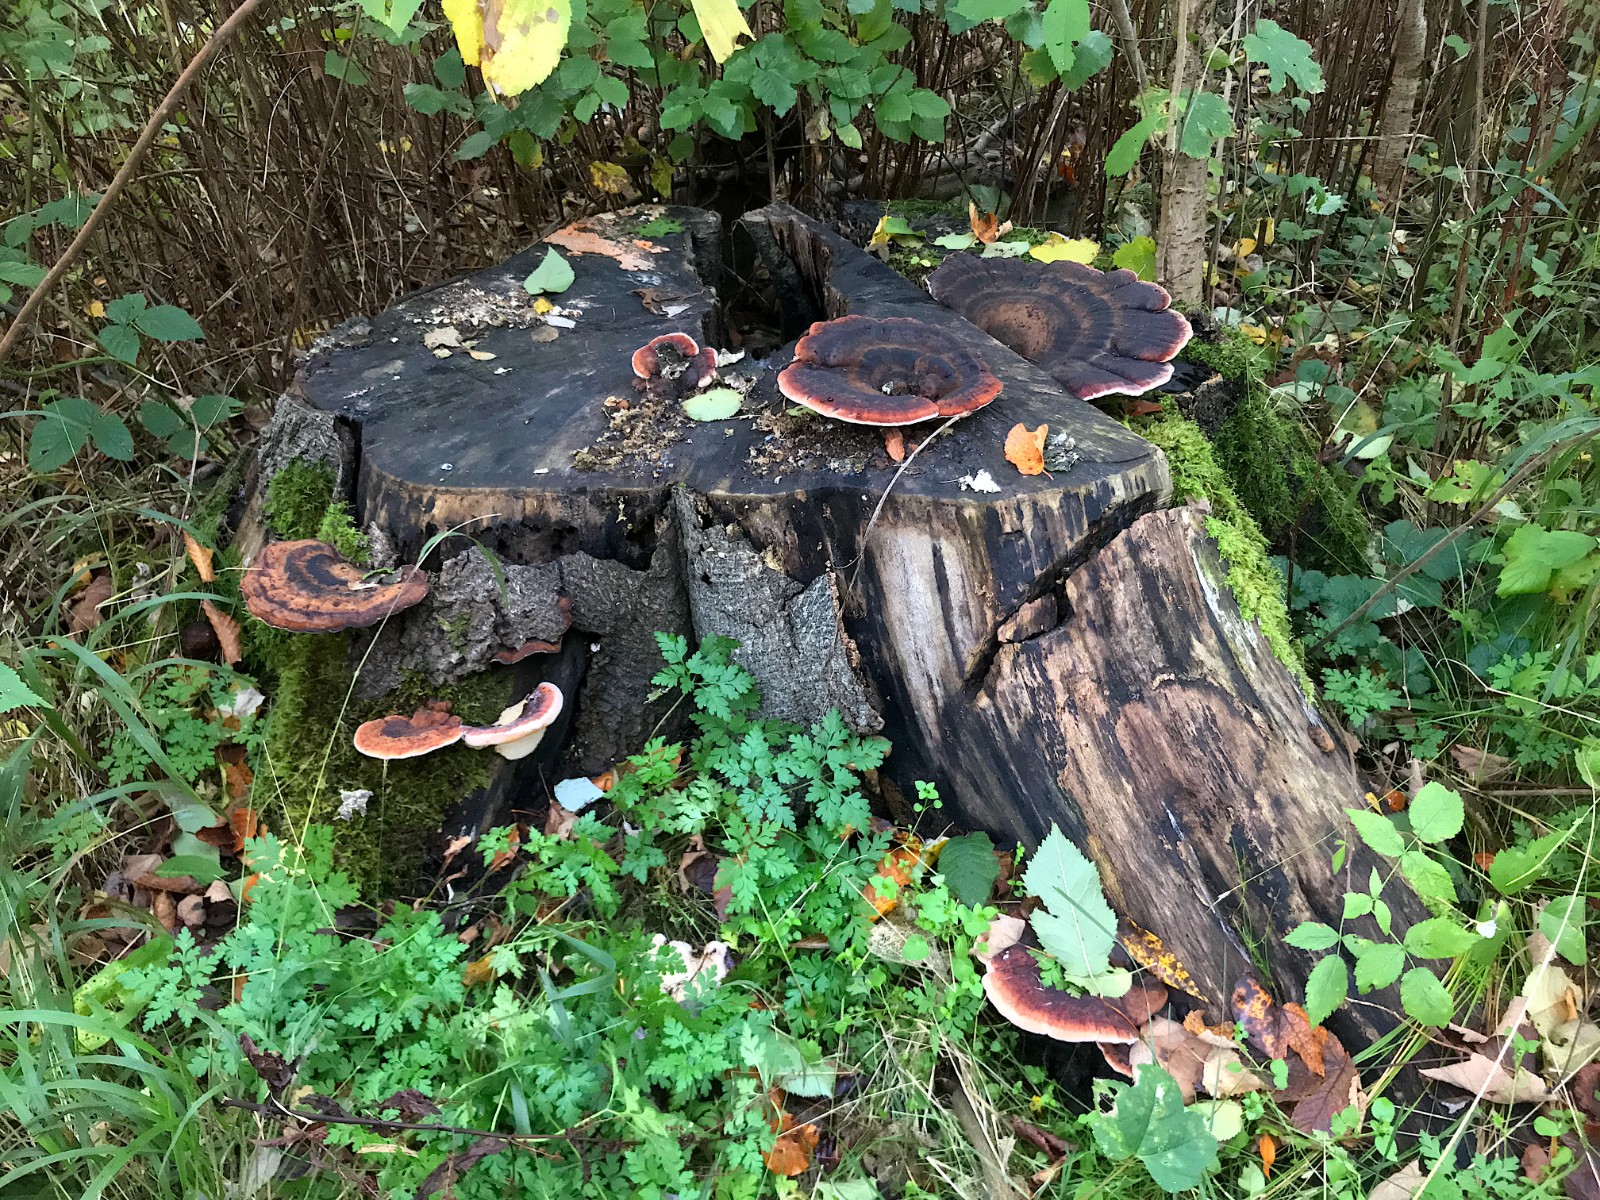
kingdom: Fungi
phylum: Basidiomycota
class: Agaricomycetes
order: Polyporales
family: Ischnodermataceae
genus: Ischnoderma
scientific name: Ischnoderma benzoinum
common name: gran-tjæreporesvamp
